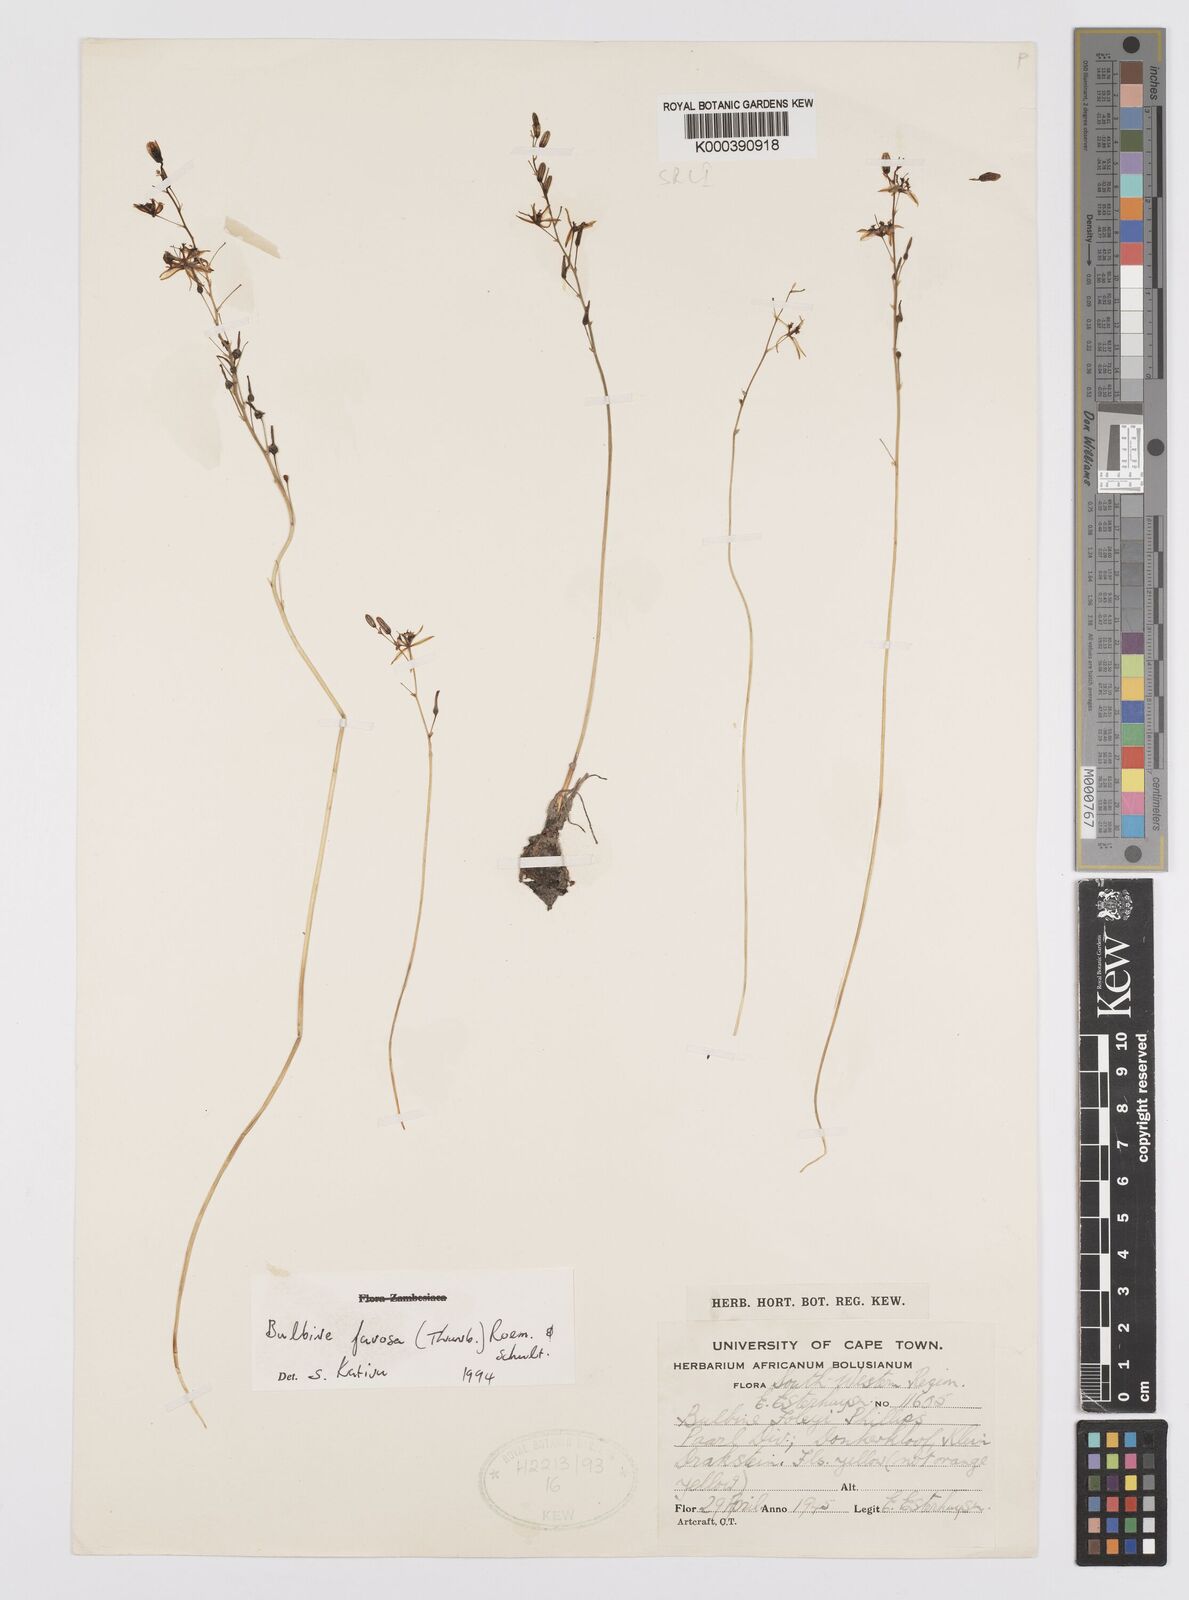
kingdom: Plantae
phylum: Tracheophyta
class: Liliopsida
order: Asparagales
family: Asphodelaceae
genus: Bulbine
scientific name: Bulbine favosa
